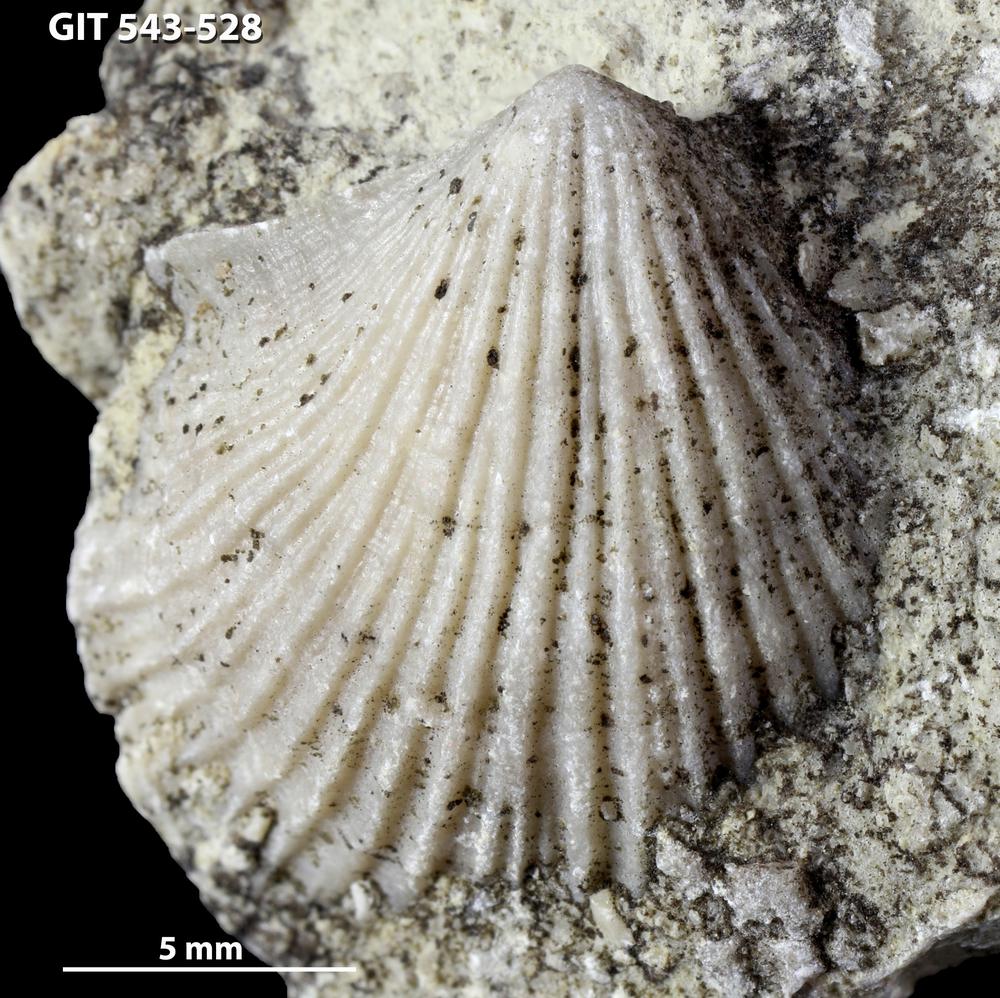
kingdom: Animalia
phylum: Brachiopoda
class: Rhynchonellata
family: Clitambonitidae
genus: Vellamo
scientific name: Vellamo Orthis verneuili
